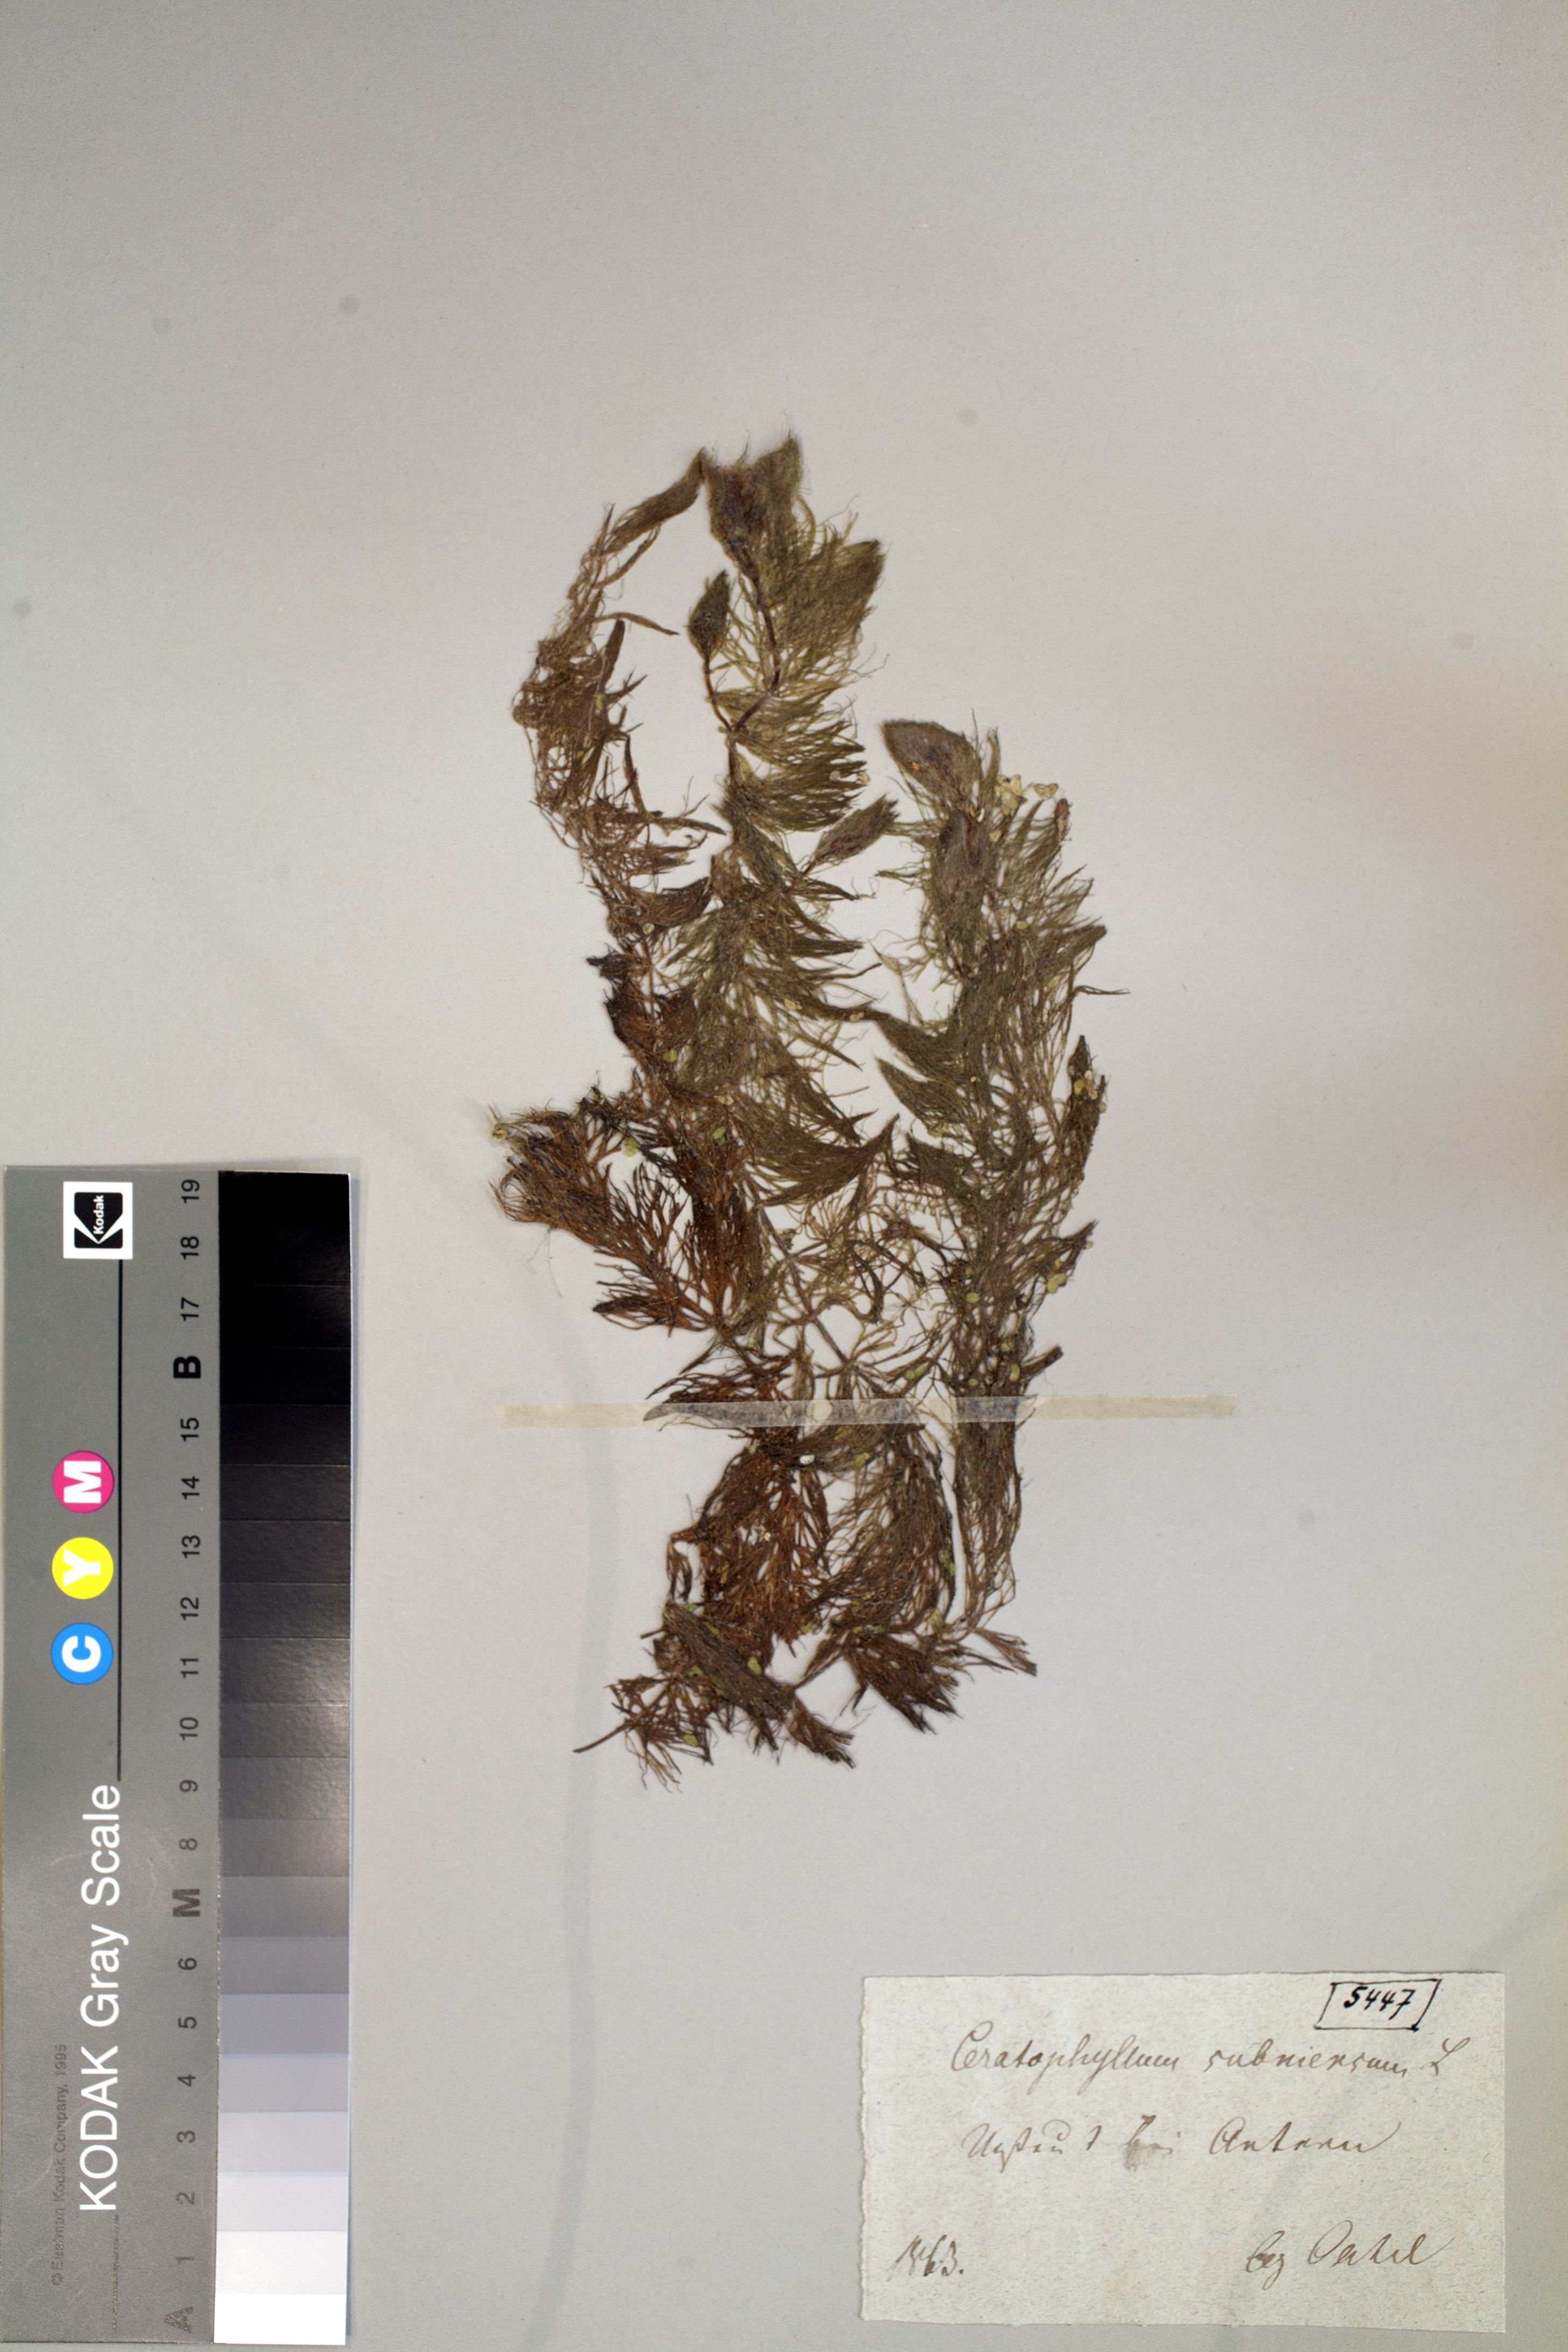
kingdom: Plantae
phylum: Tracheophyta
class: Magnoliopsida
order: Ceratophyllales
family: Ceratophyllaceae
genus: Ceratophyllum
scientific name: Ceratophyllum submersum
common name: Soft hornwort
